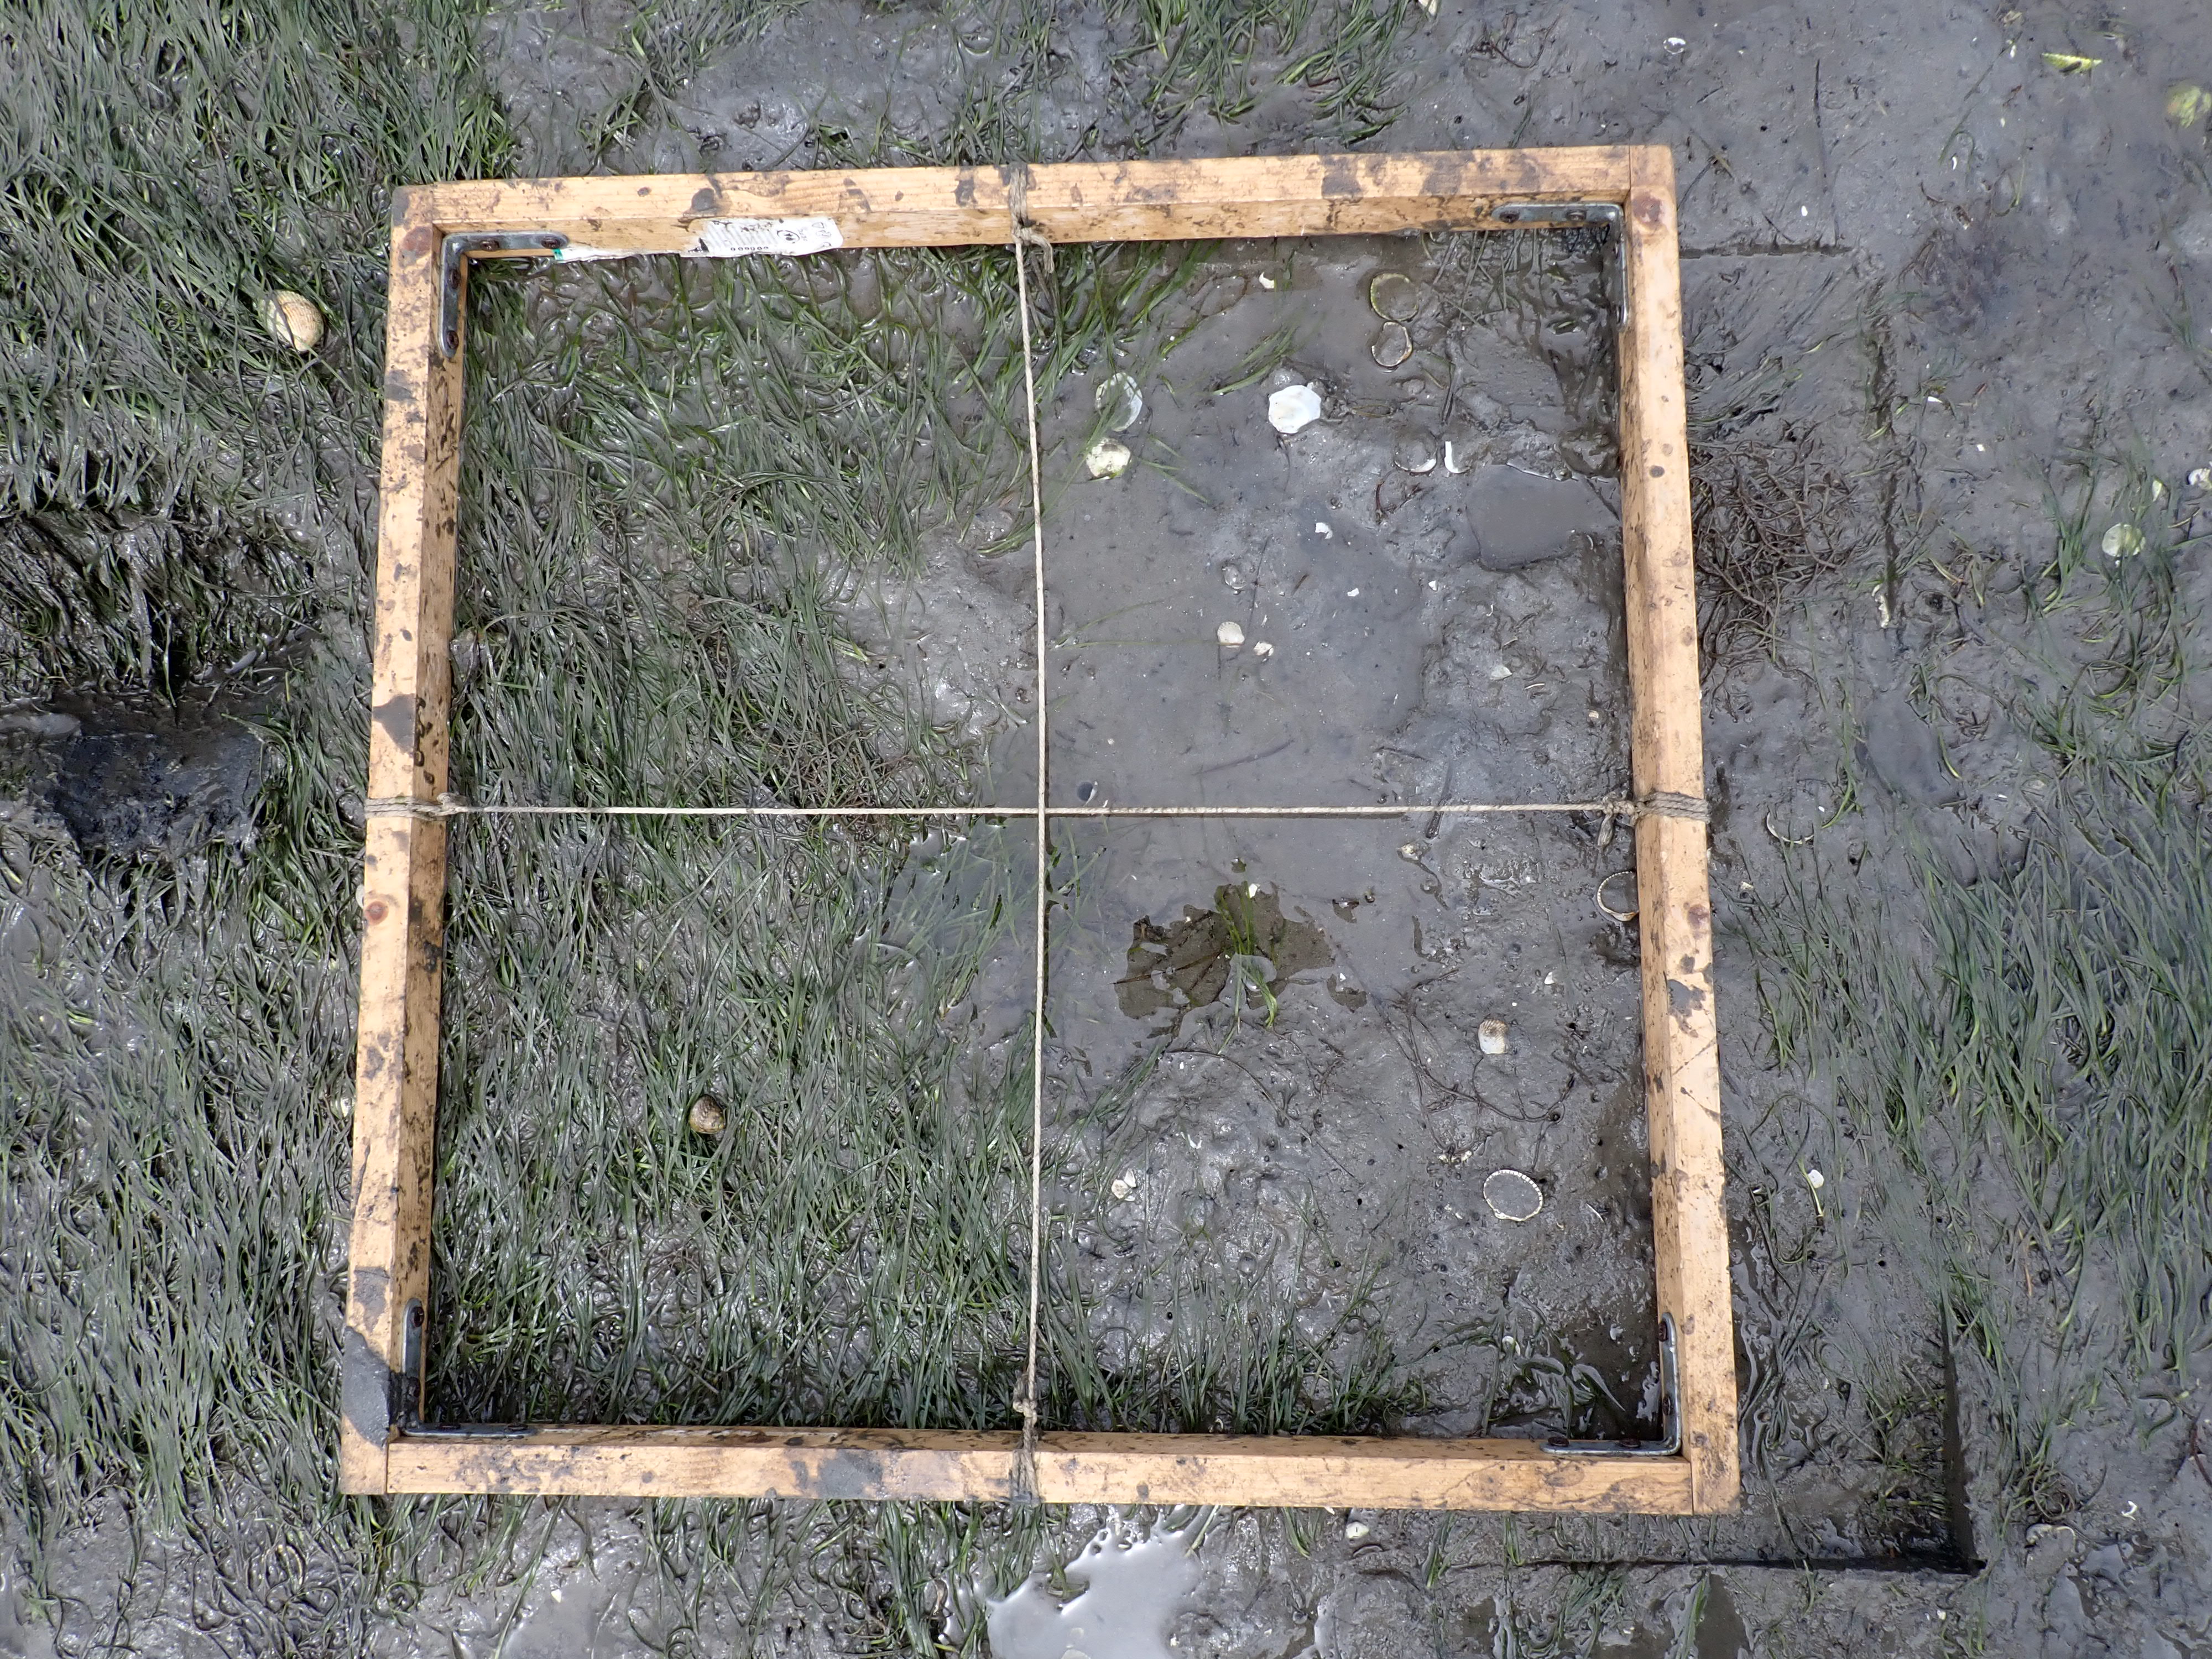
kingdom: Plantae
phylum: Tracheophyta
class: Liliopsida
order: Alismatales
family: Zosteraceae
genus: Zostera
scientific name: Zostera noltii
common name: Dwarf eelgrass
